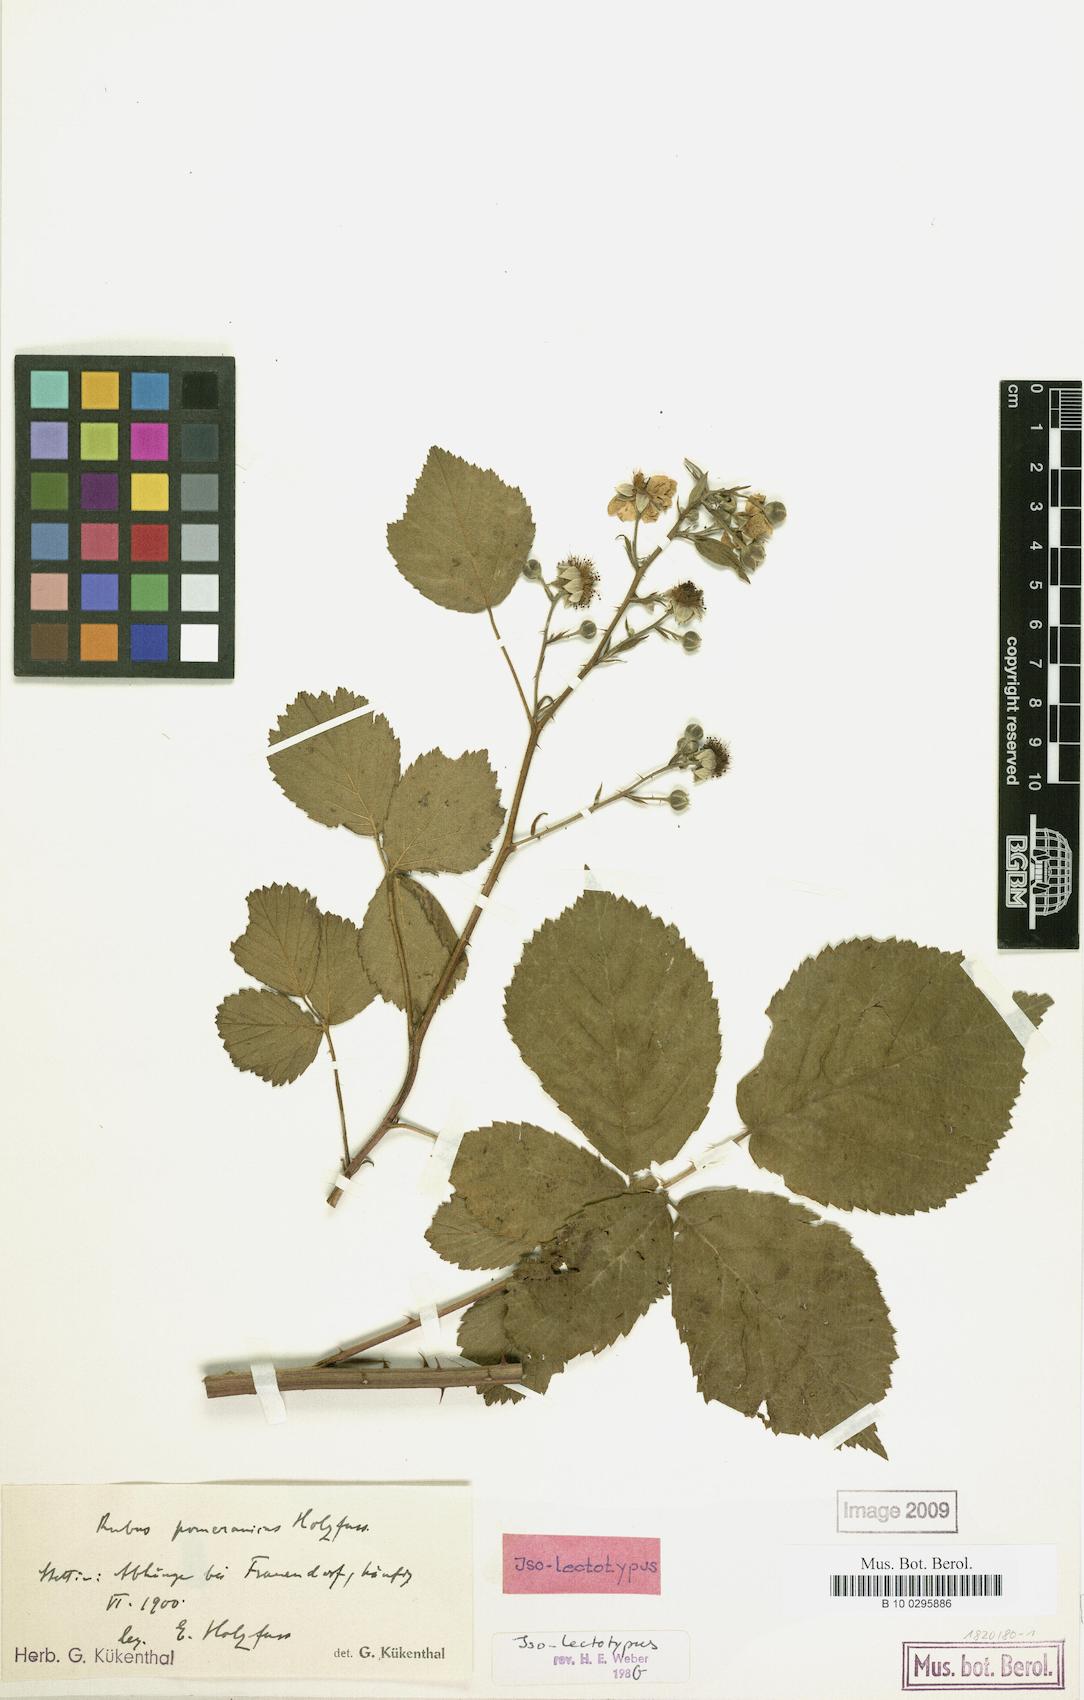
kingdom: Plantae
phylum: Tracheophyta
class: Magnoliopsida
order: Rosales
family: Rosaceae
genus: Rubus
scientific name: Rubus orthostachys
